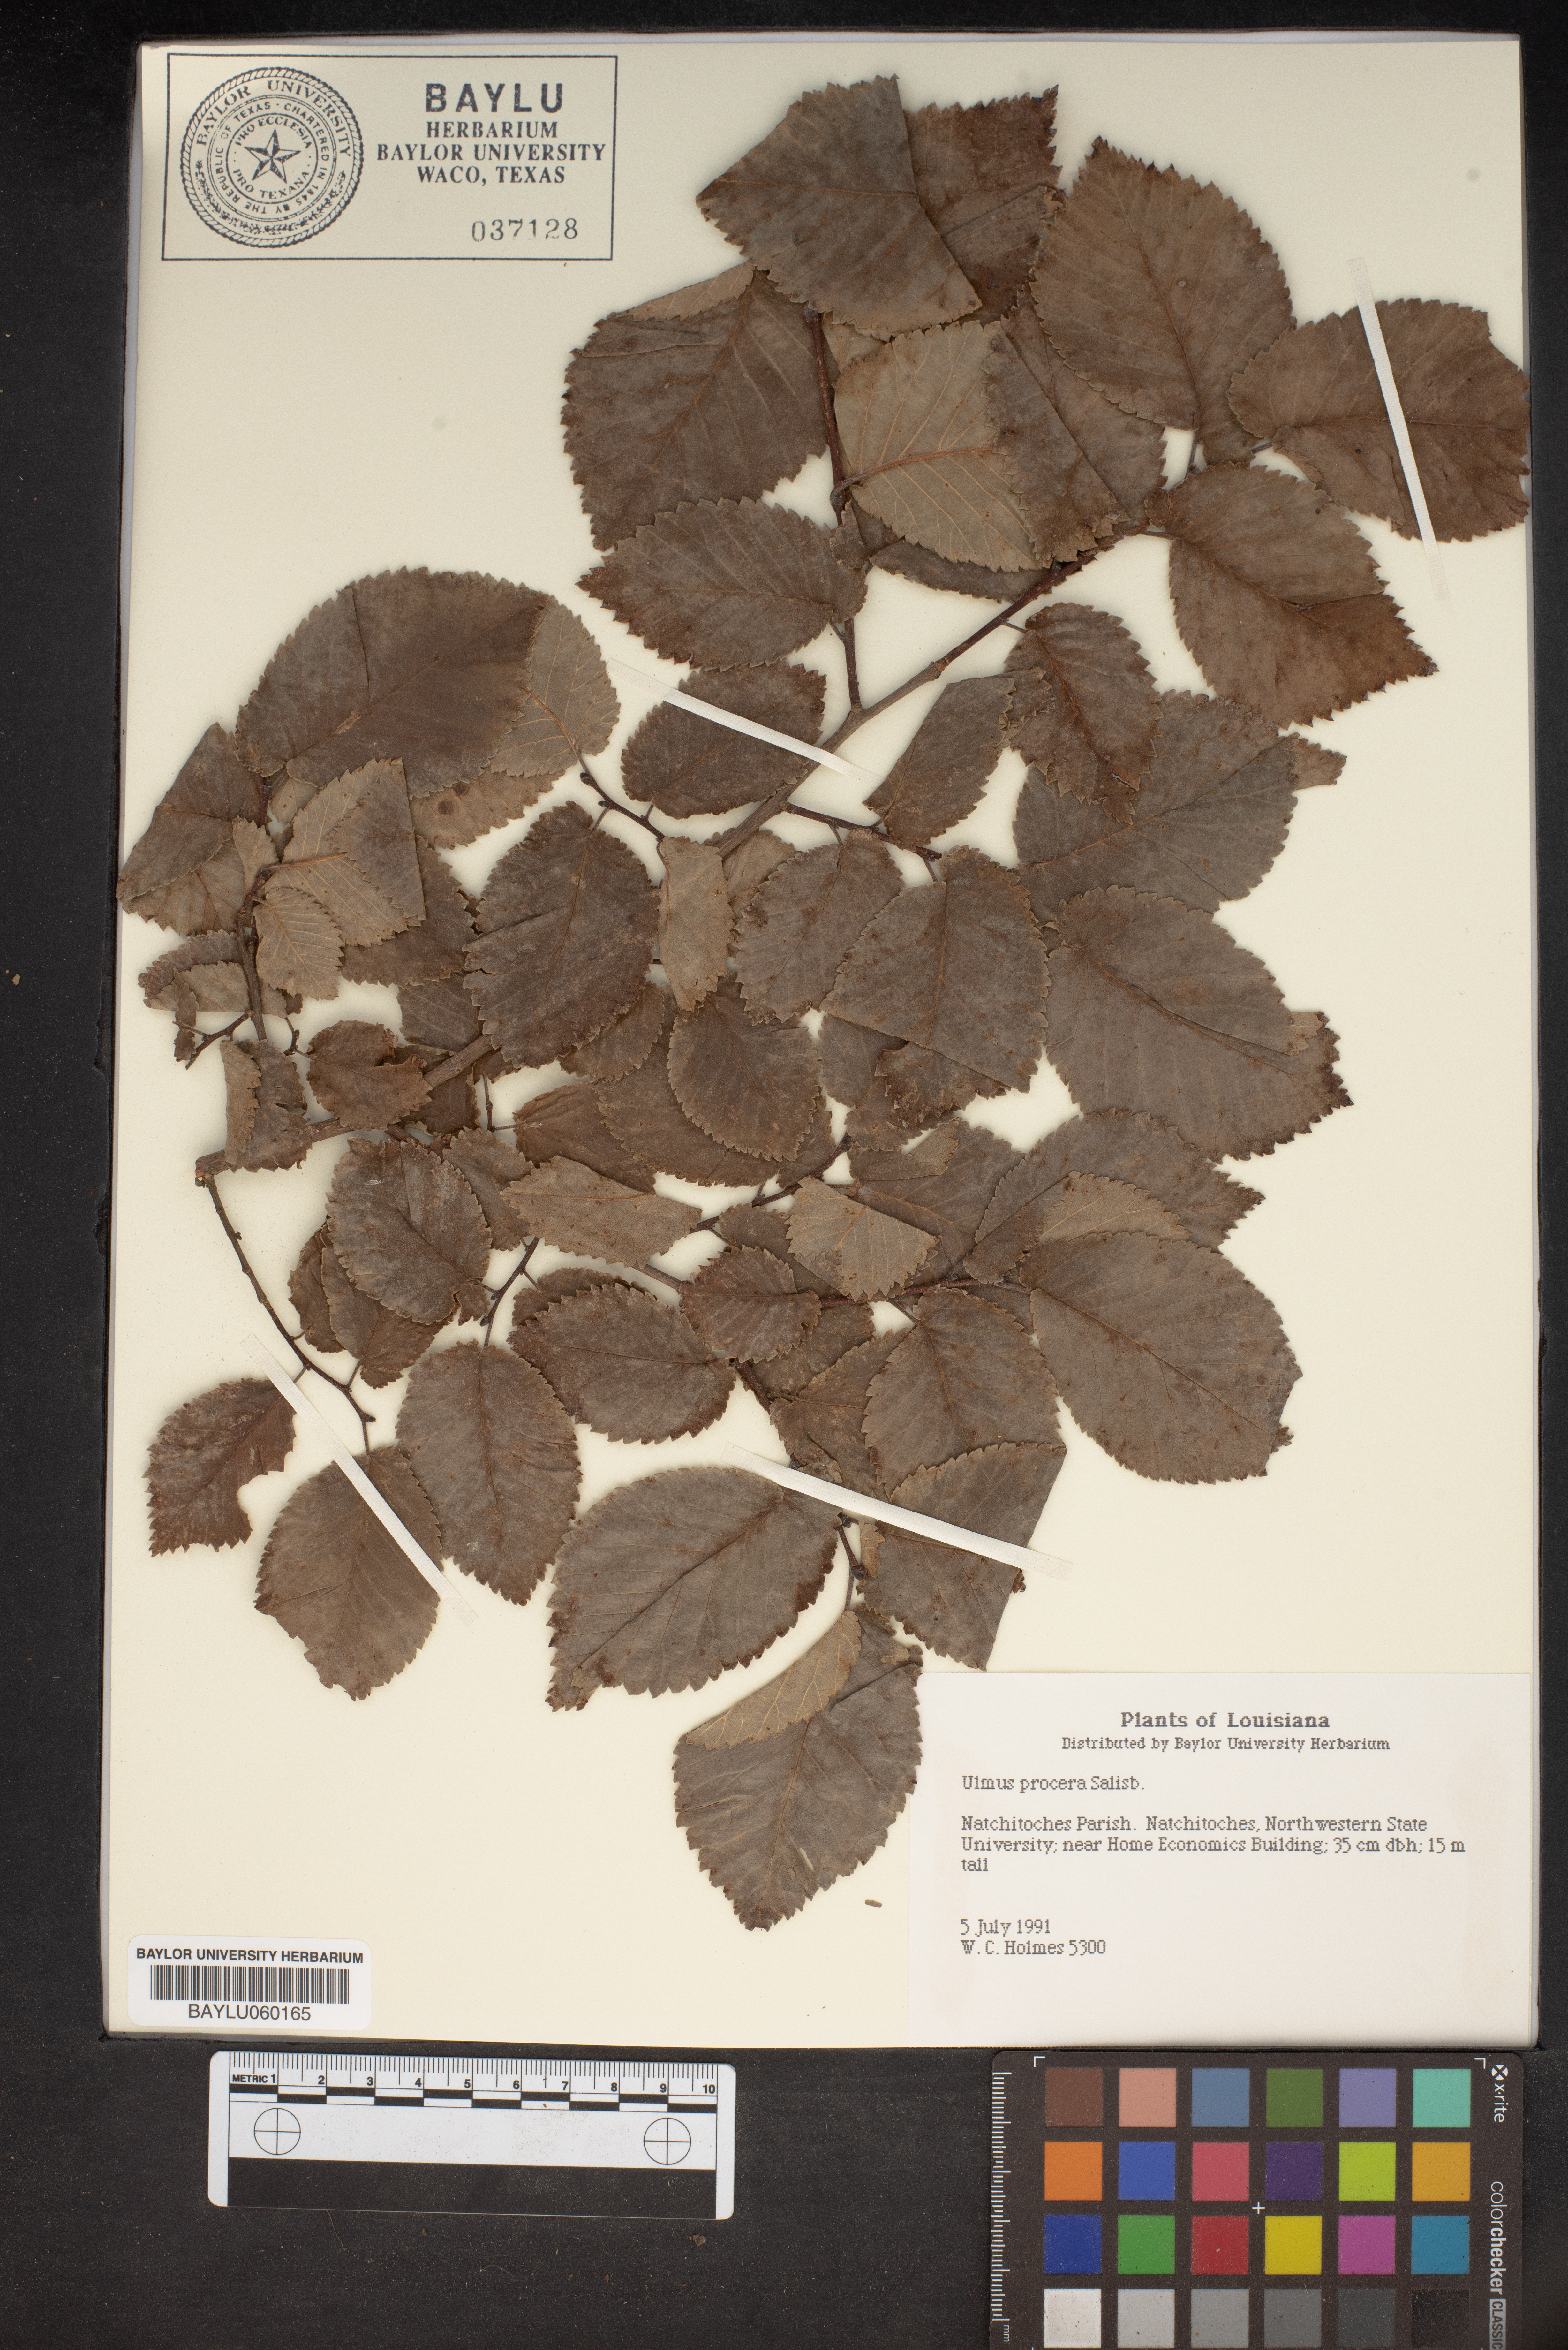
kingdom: Plantae
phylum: Tracheophyta
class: Magnoliopsida
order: Rosales
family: Ulmaceae
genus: Ulmus
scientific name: Ulmus minor
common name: Small-leaved elm
